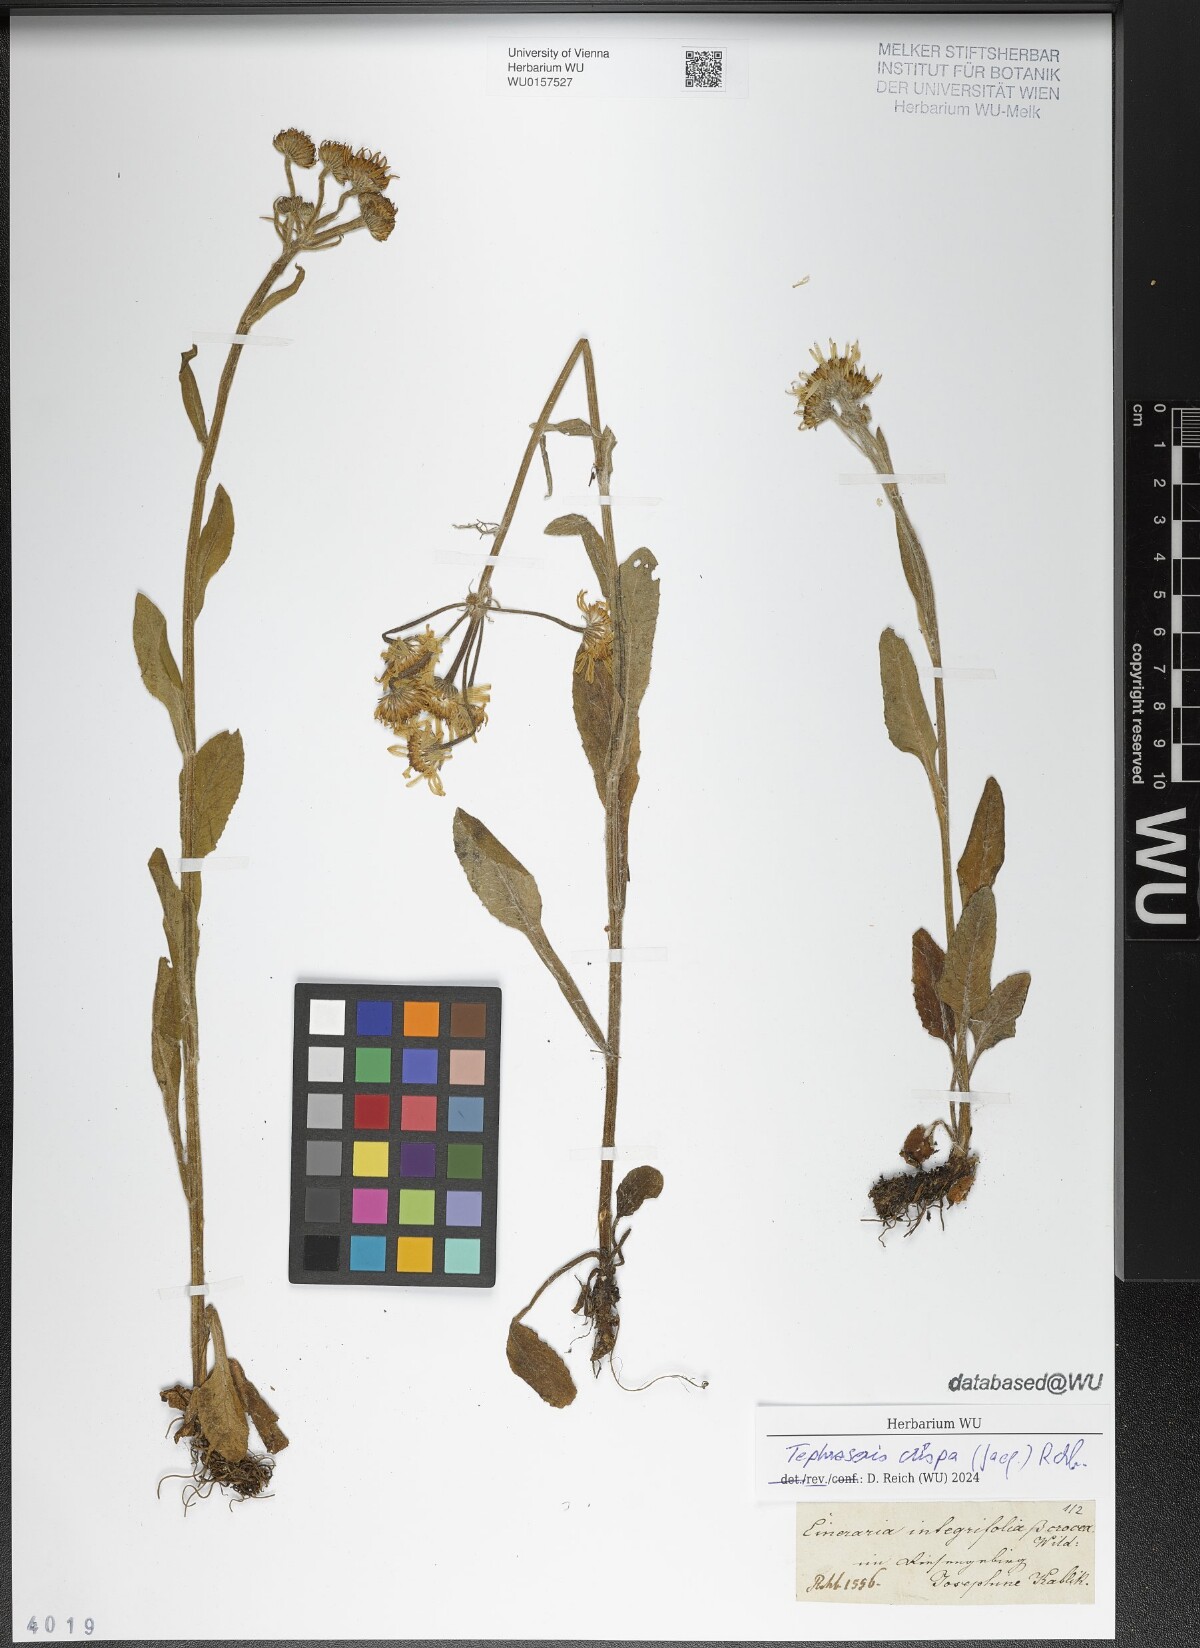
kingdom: Plantae
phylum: Tracheophyta
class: Magnoliopsida
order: Asterales
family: Asteraceae
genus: Tephroseris
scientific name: Tephroseris crispa
